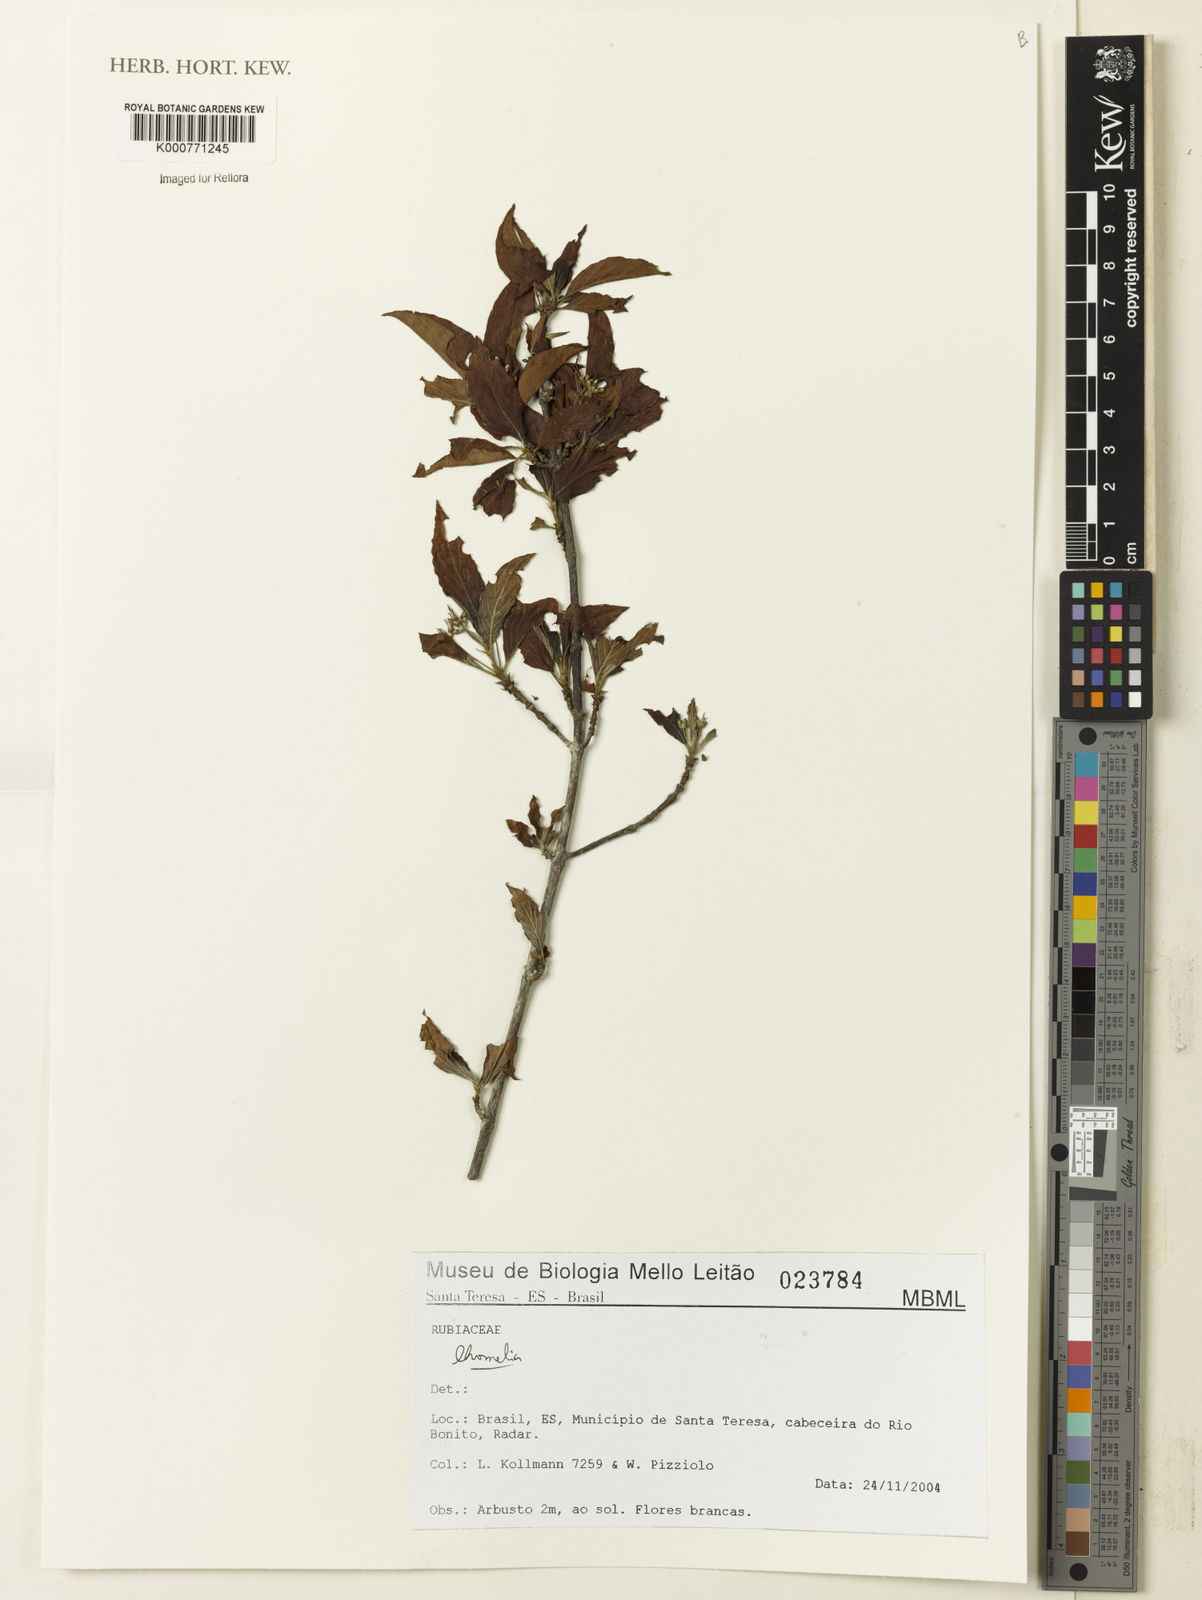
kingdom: Plantae
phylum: Tracheophyta
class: Magnoliopsida
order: Gentianales
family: Rubiaceae
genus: Chomelia
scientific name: Chomelia
